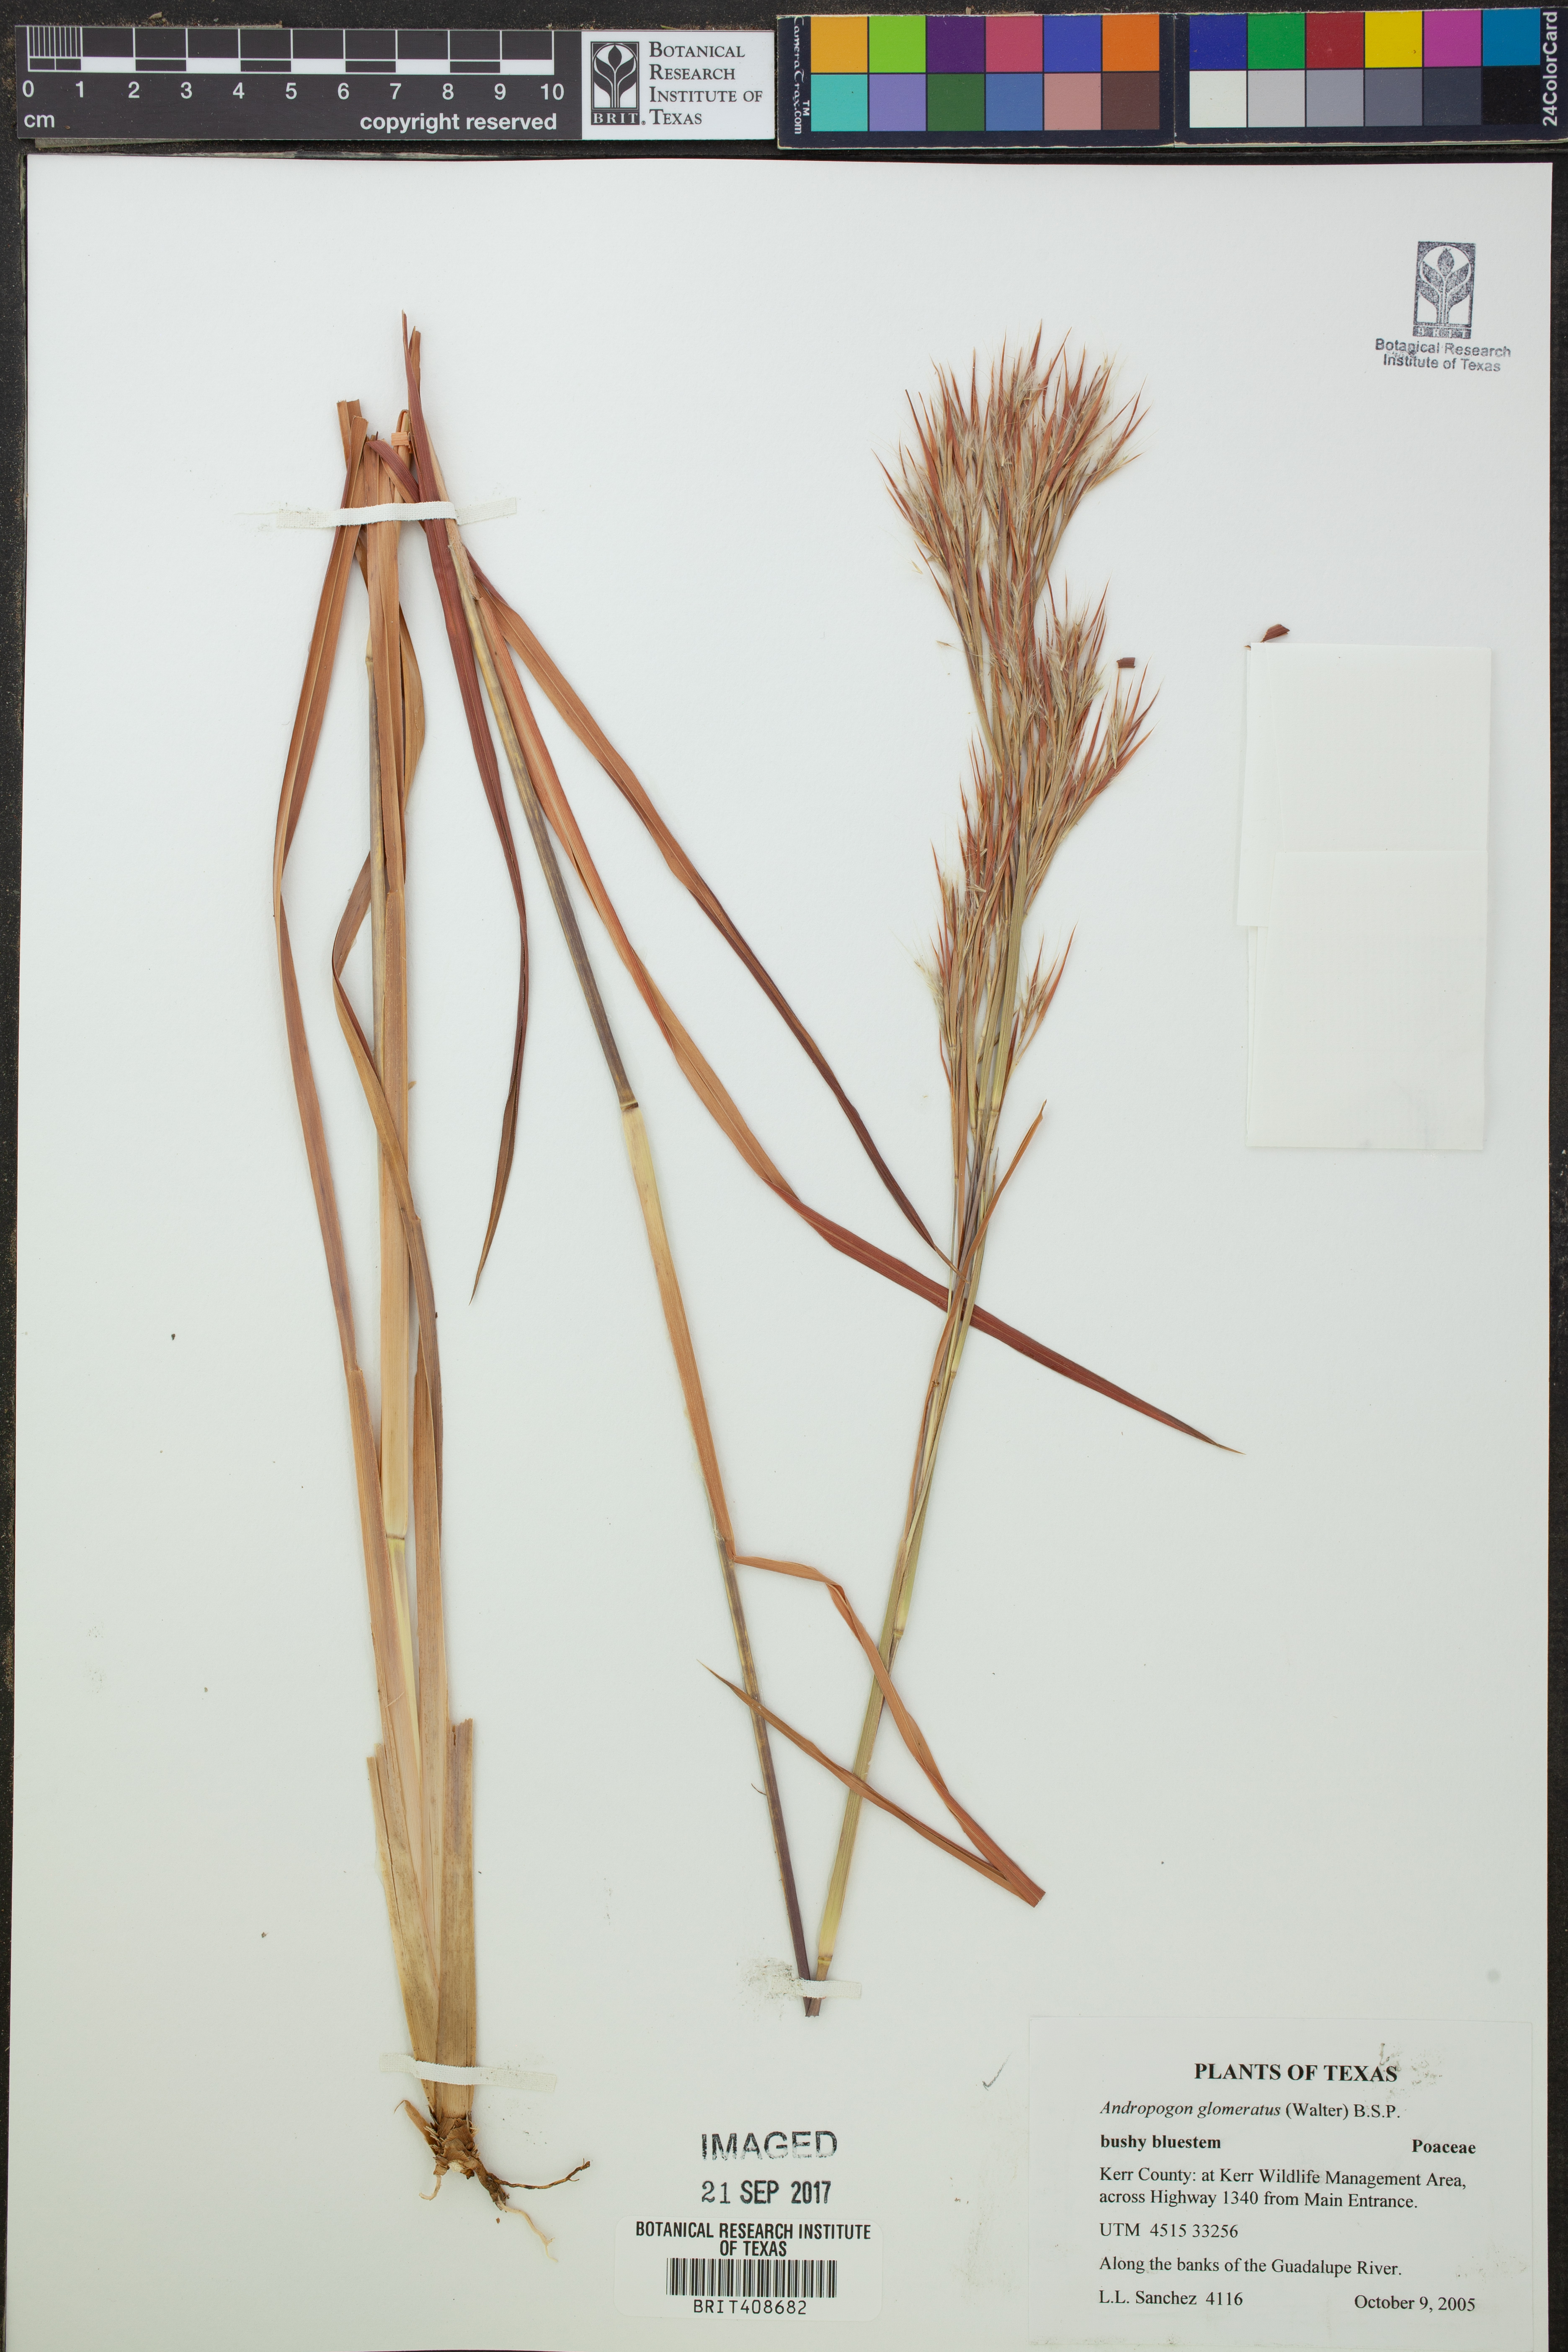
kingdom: Plantae
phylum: Tracheophyta
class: Liliopsida
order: Poales
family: Poaceae
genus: Andropogon
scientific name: Andropogon glomeratus
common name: Bushy beard grass
